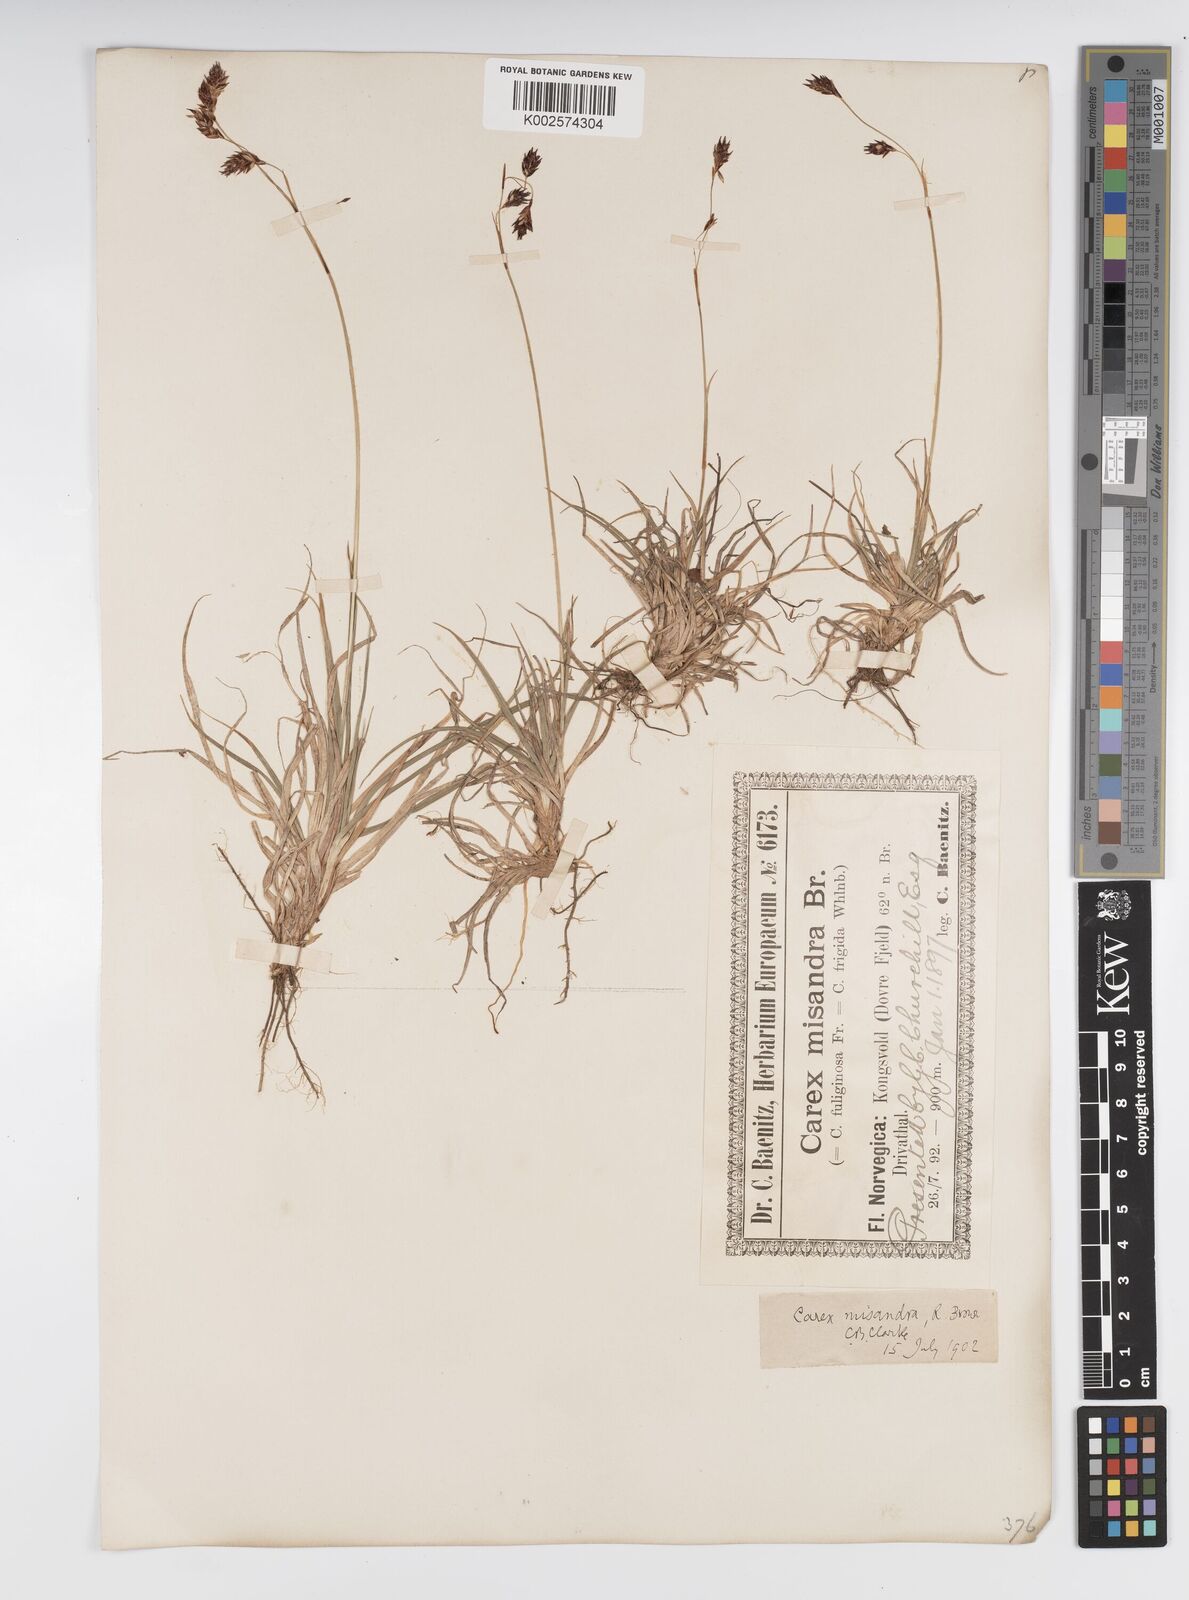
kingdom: Plantae
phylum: Tracheophyta
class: Liliopsida
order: Poales
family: Cyperaceae
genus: Carex
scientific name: Carex fuliginosa
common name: Few-flowered sedge
